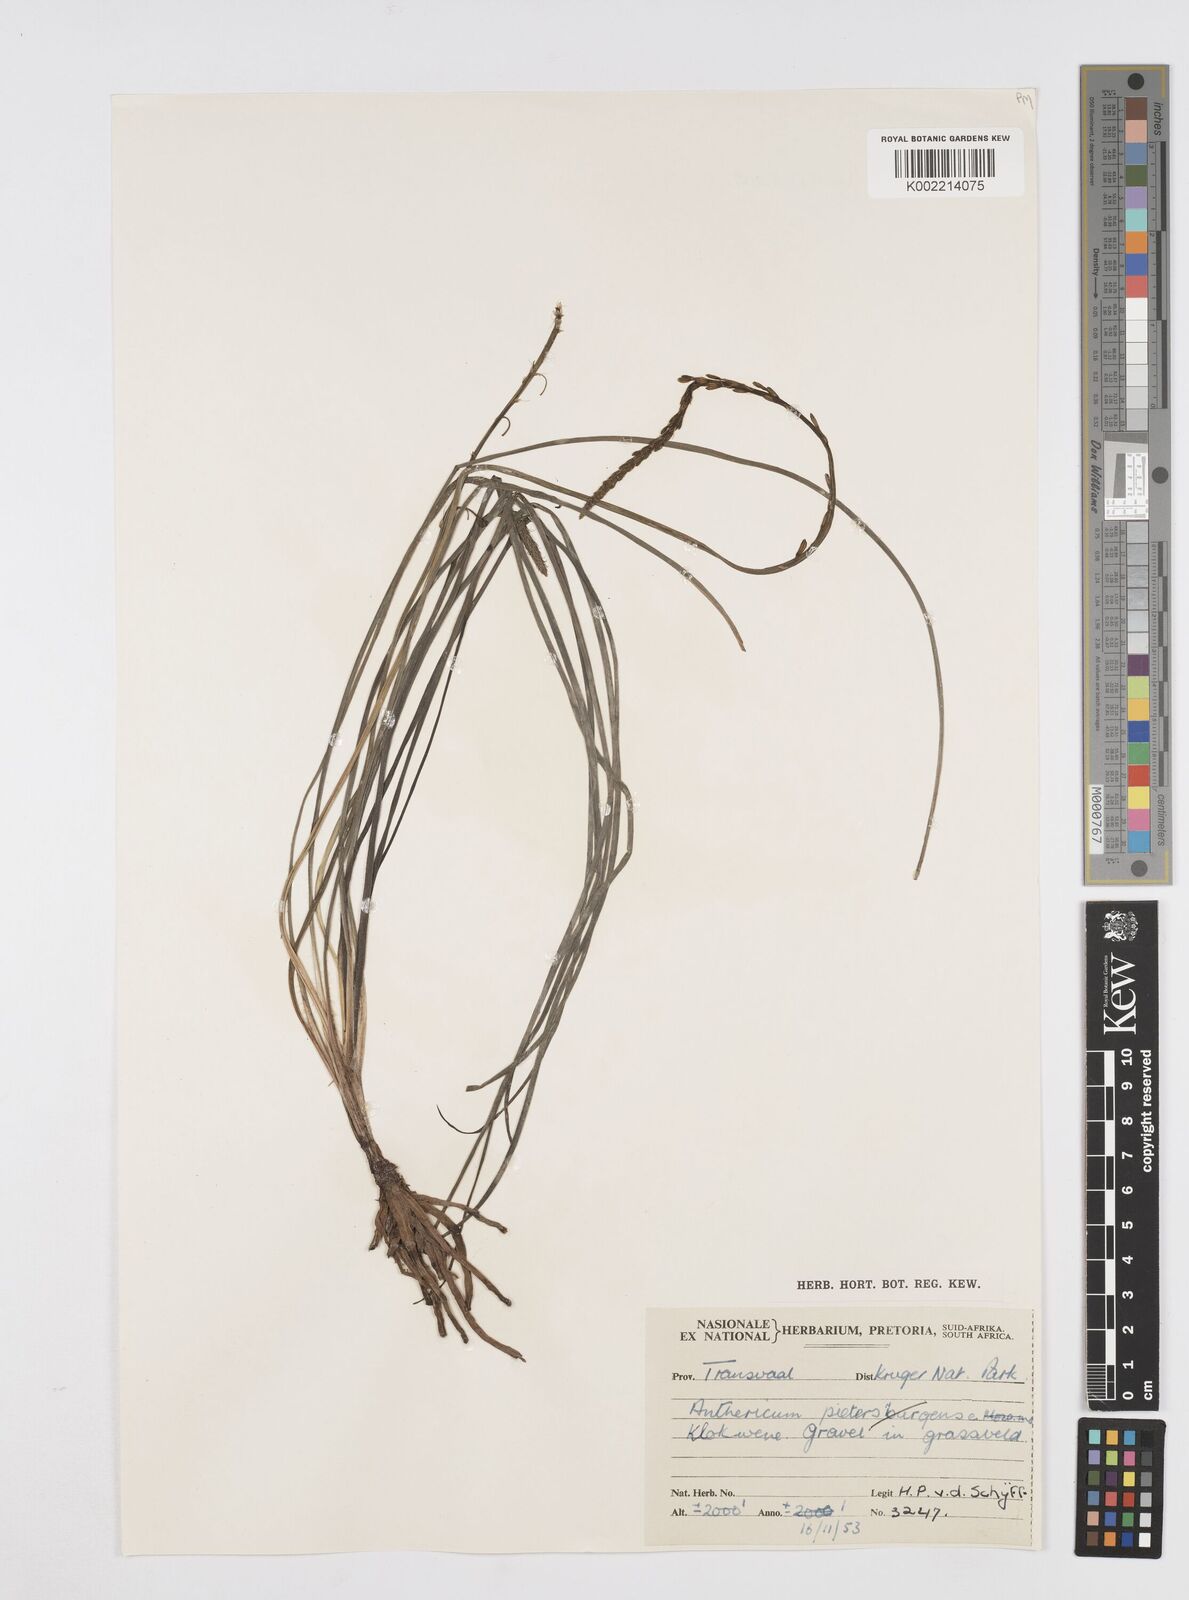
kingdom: Plantae
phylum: Tracheophyta
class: Liliopsida
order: Asparagales
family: Asphodelaceae
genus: Trachyandra
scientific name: Trachyandra
